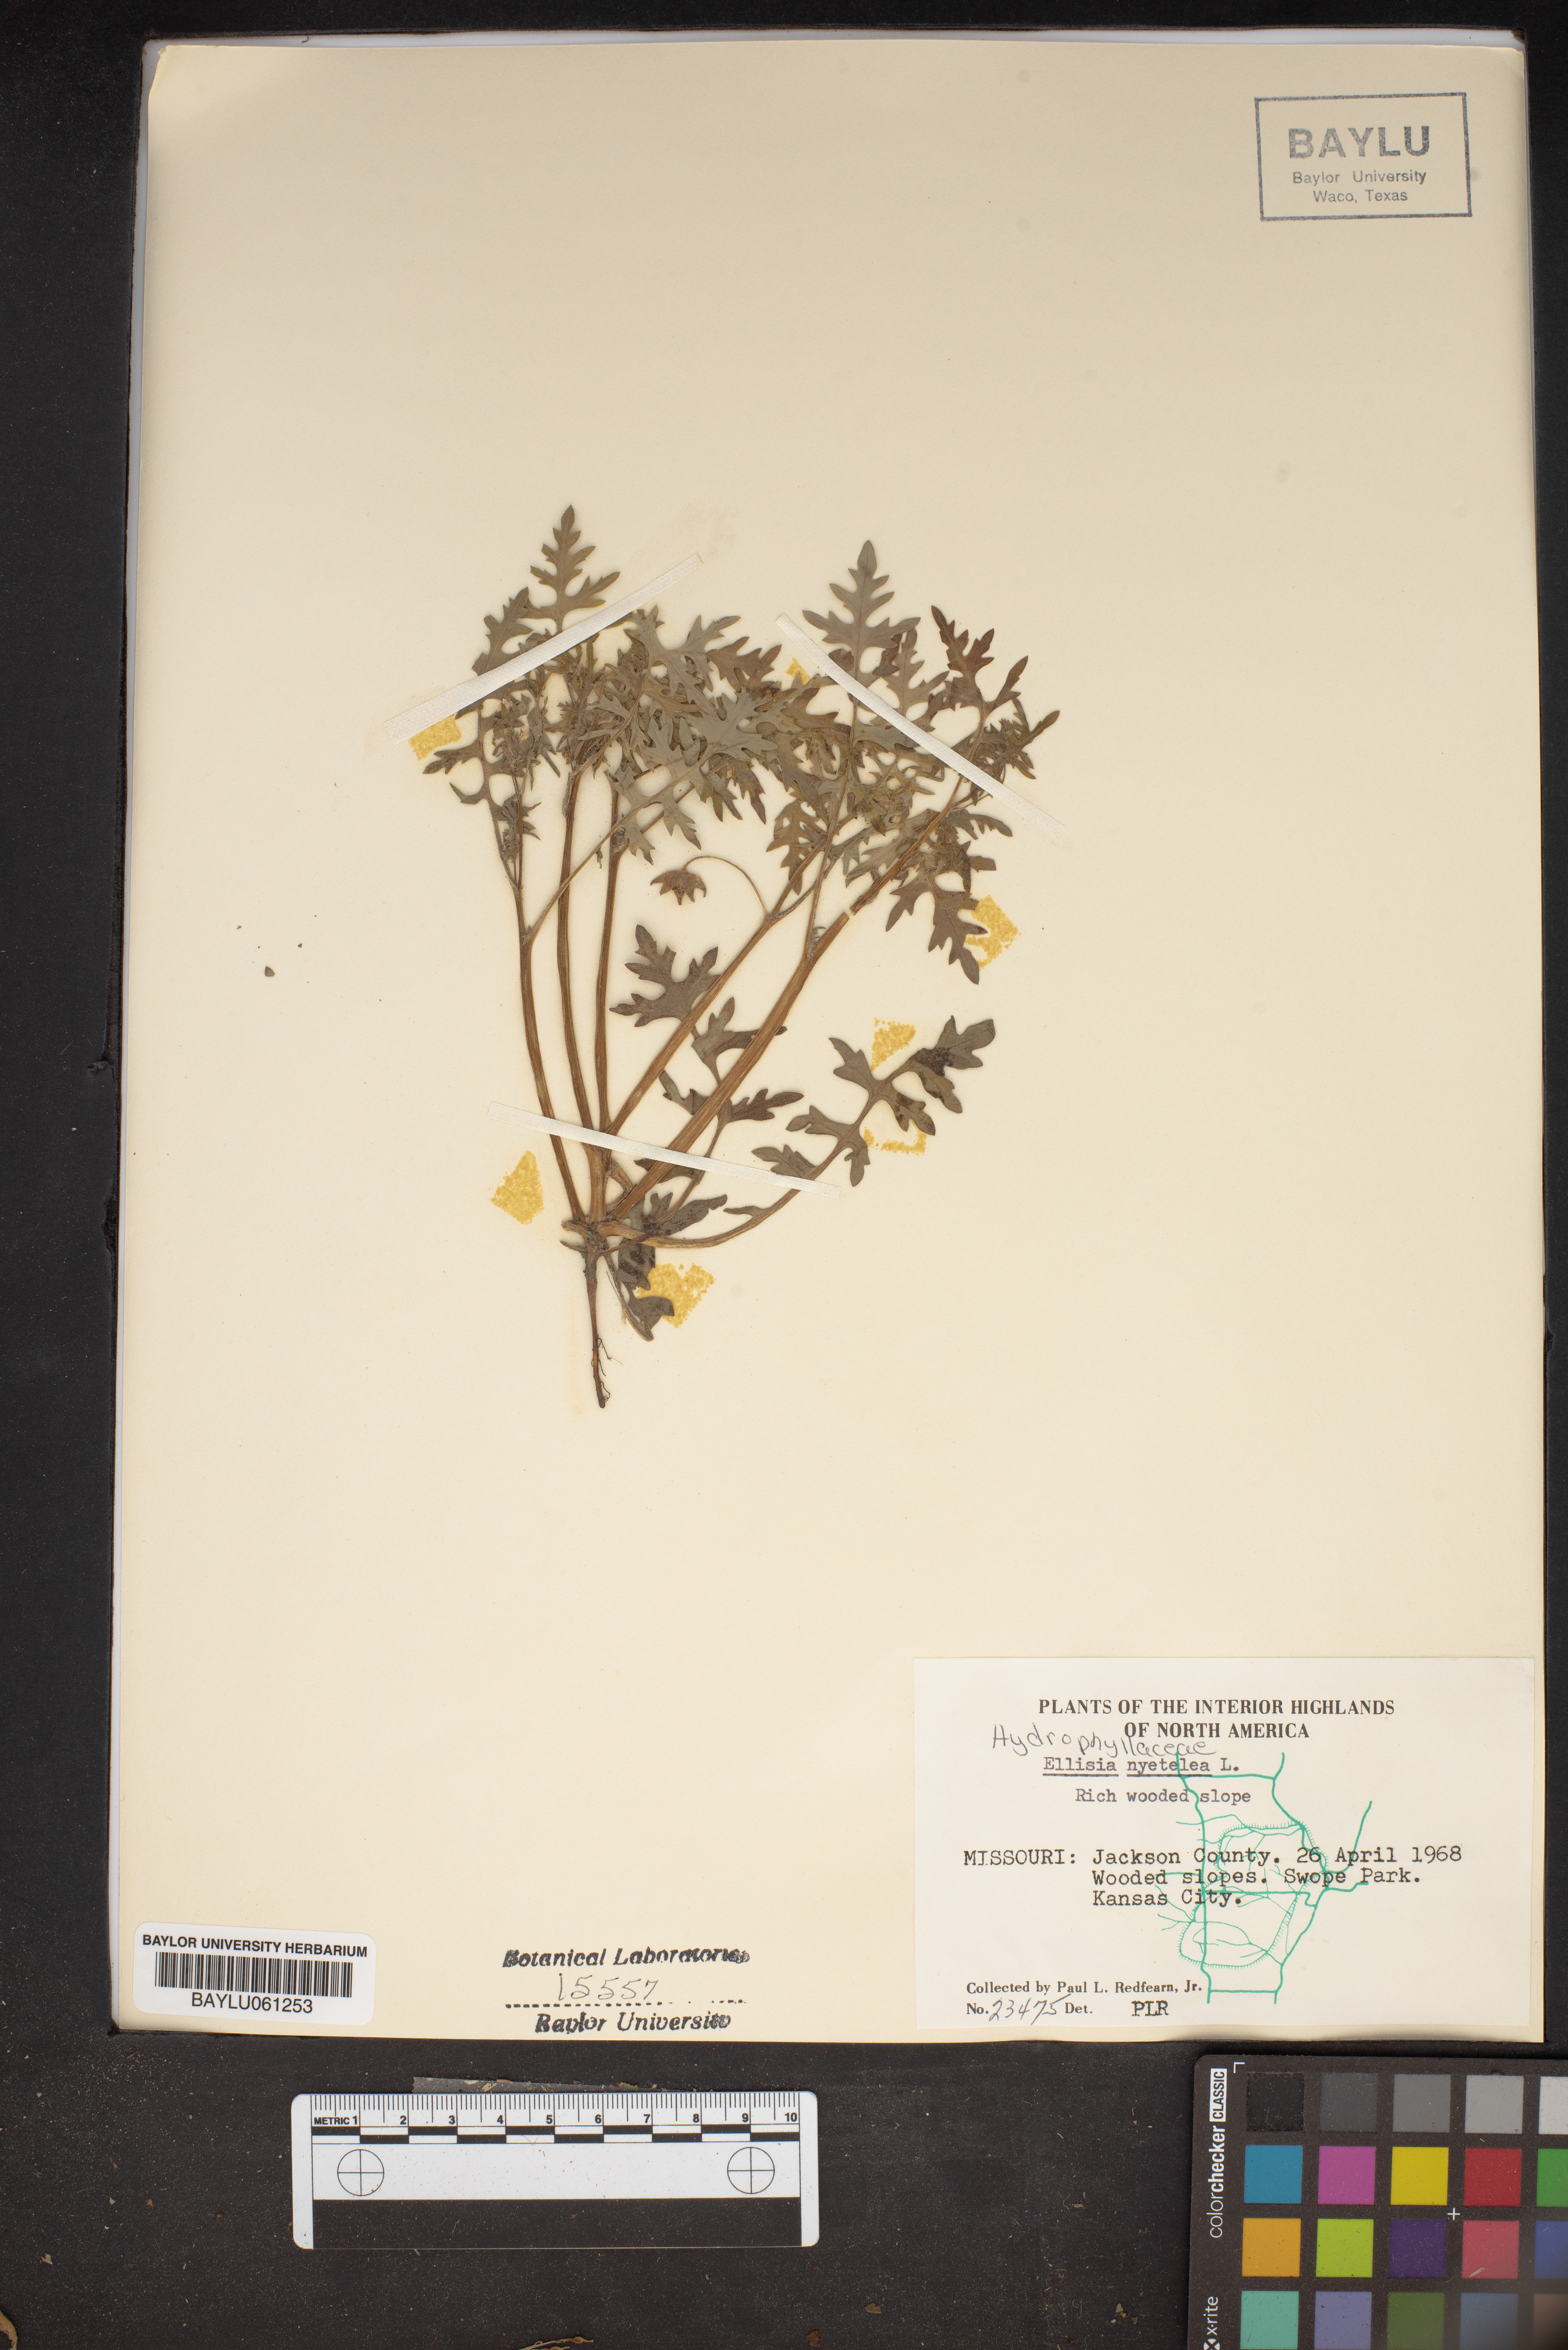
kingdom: Plantae
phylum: Tracheophyta
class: Magnoliopsida
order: Boraginales
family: Hydrophyllaceae
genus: Ellisia
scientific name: Ellisia nyctelea
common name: Aunt lucy
